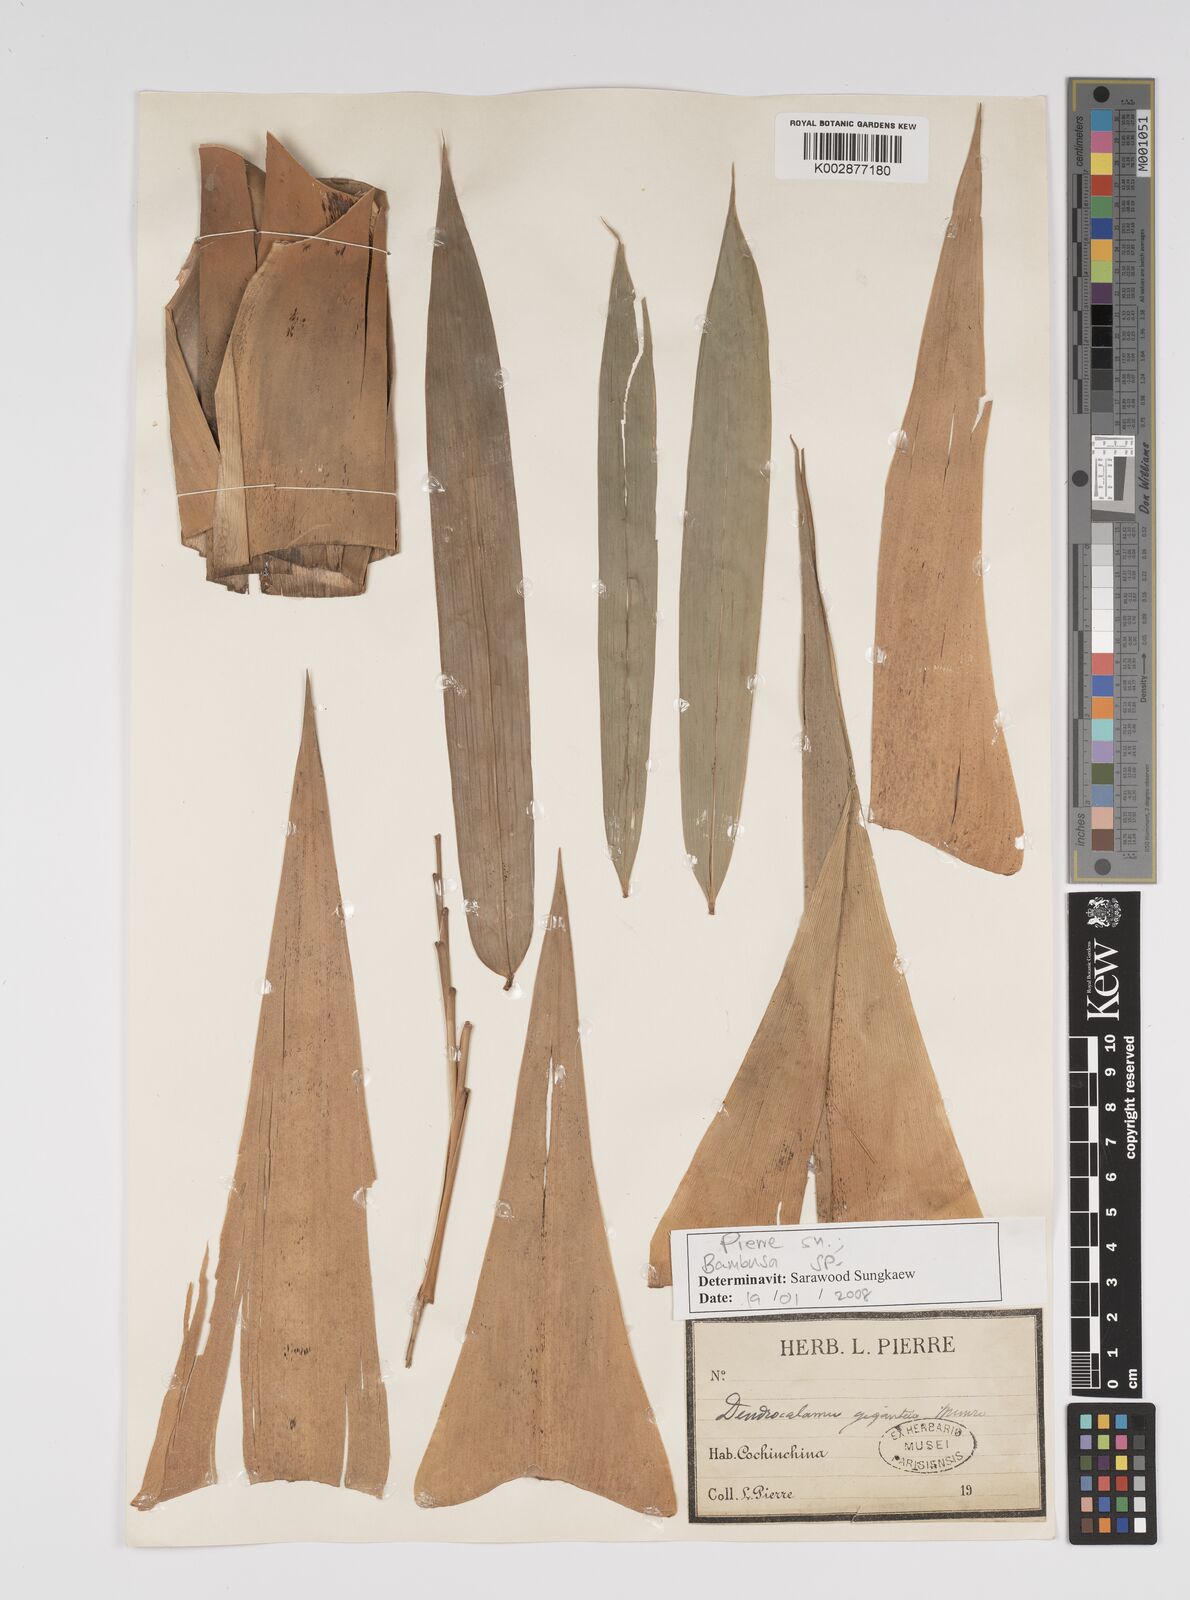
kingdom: Plantae
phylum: Tracheophyta
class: Liliopsida
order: Poales
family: Poaceae
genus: Bambusa
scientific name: Bambusa
